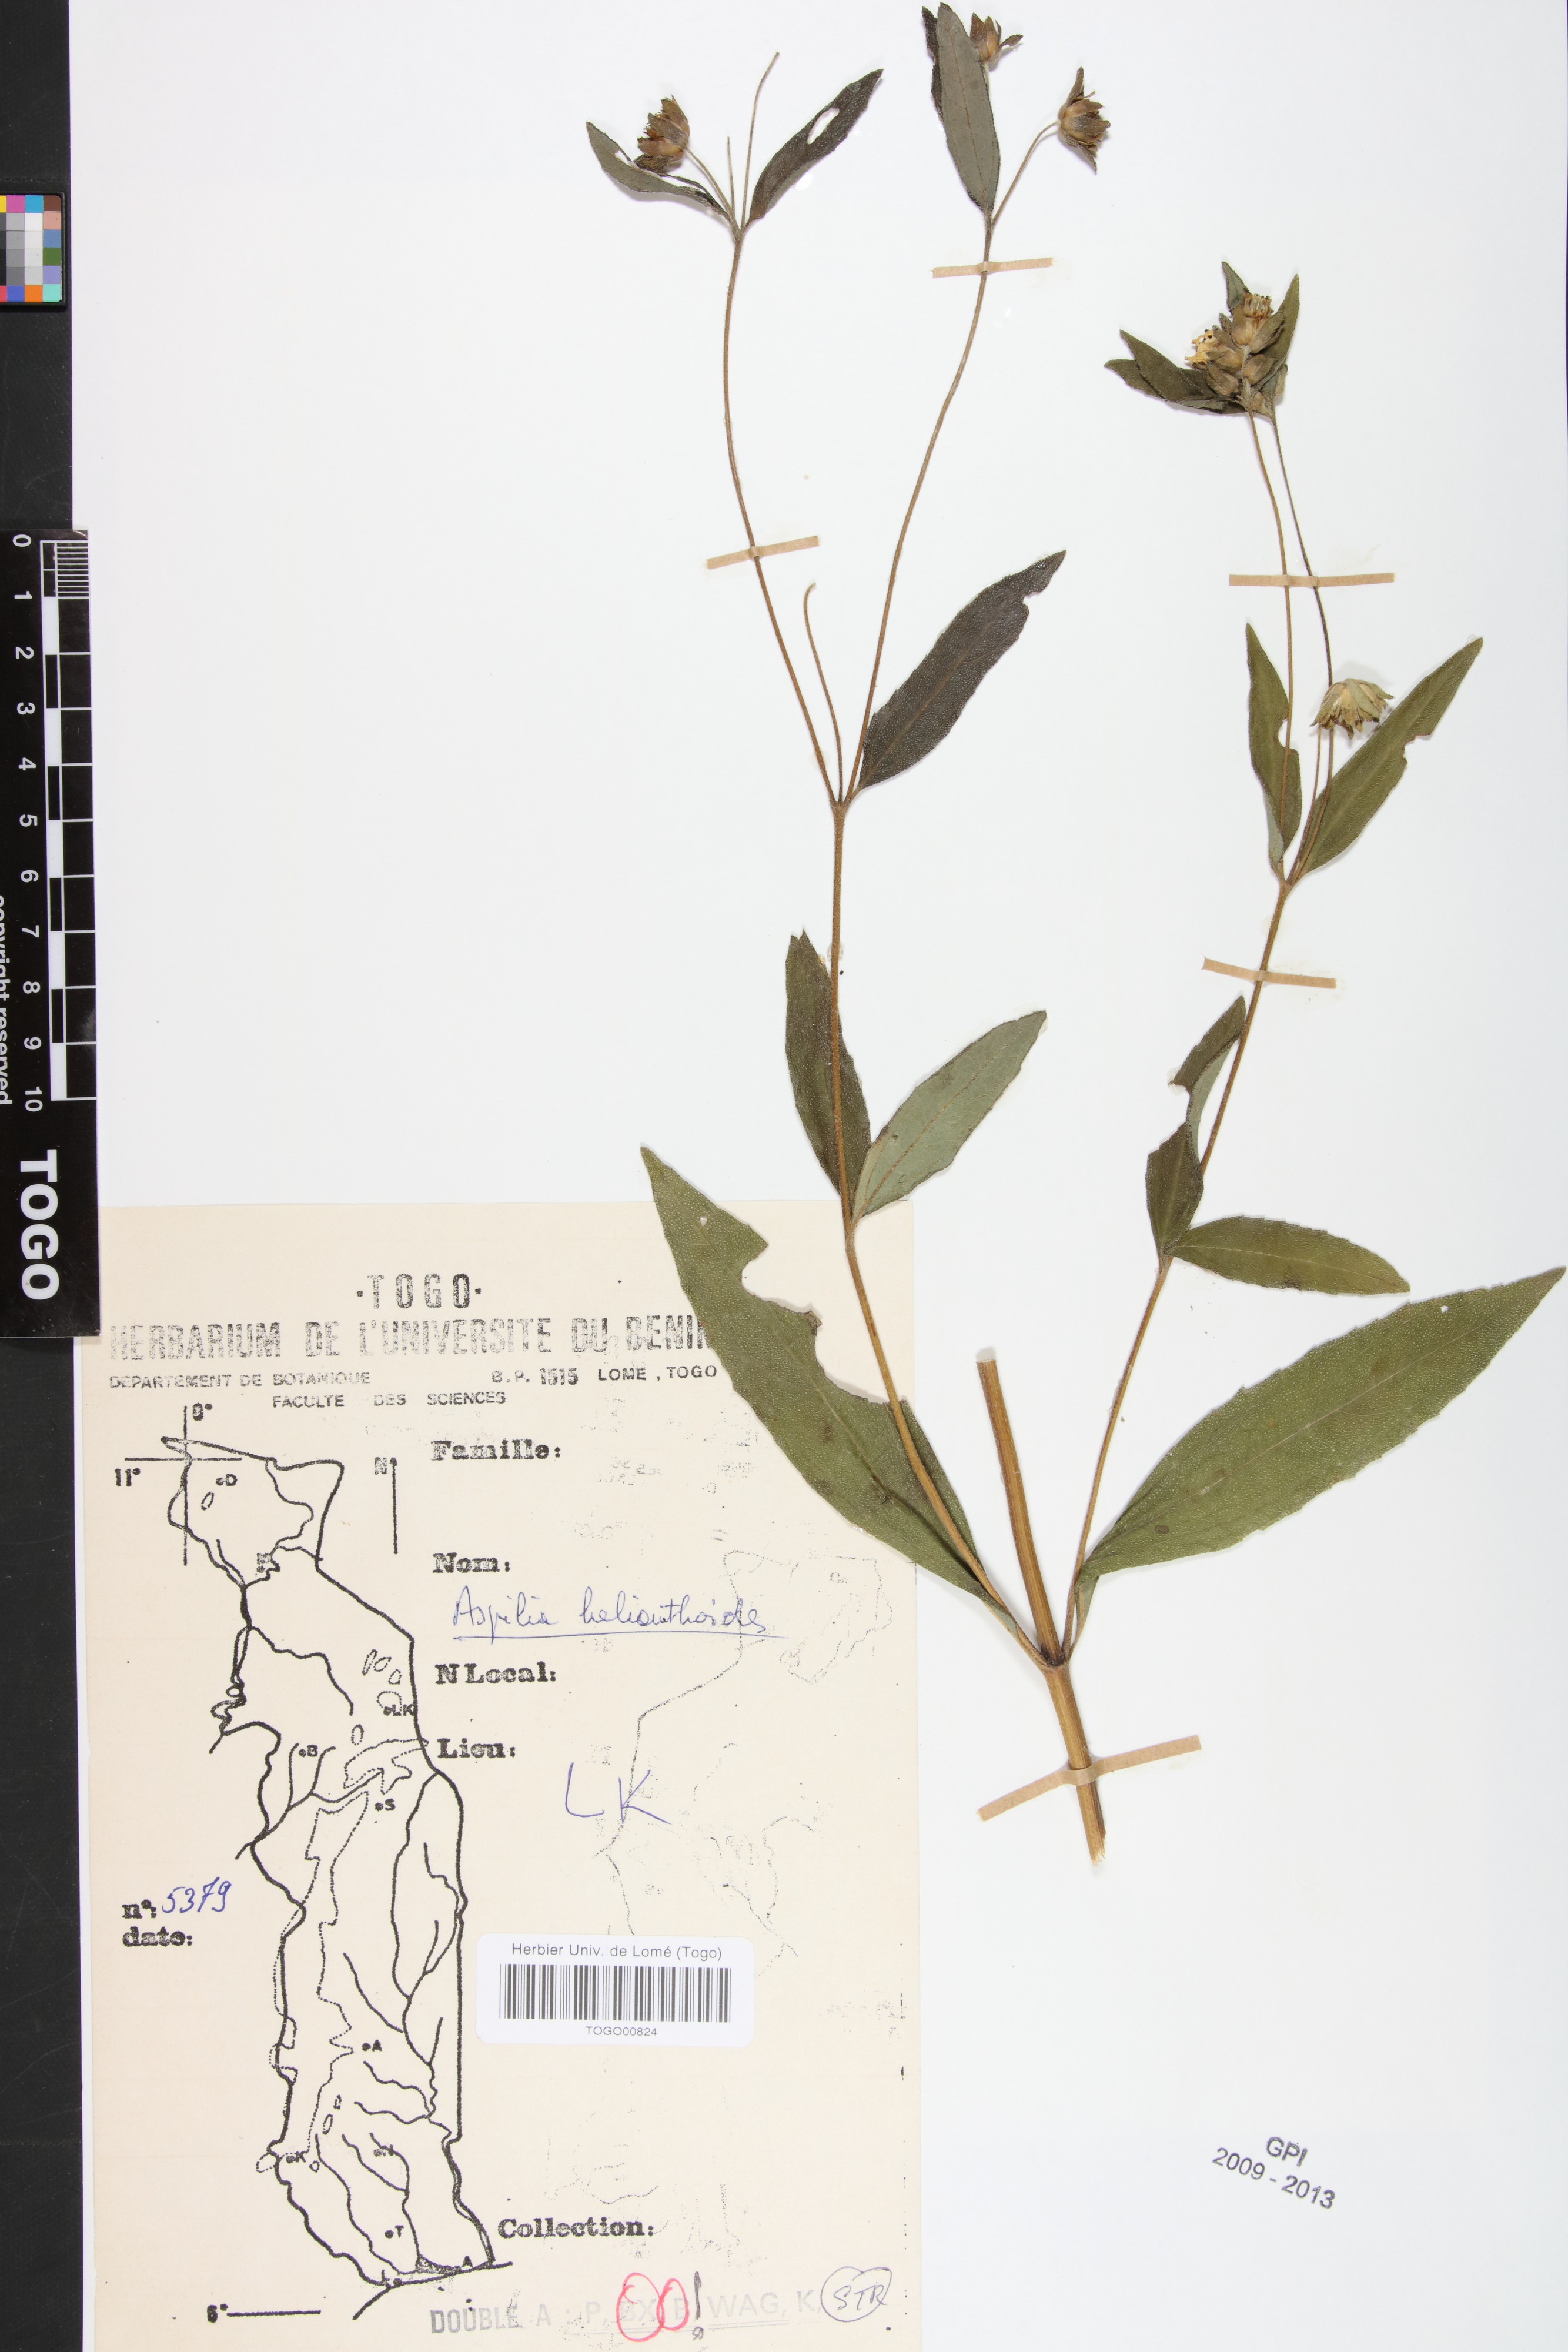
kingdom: Plantae
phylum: Tracheophyta
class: Magnoliopsida
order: Asterales
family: Asteraceae
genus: Aspilia
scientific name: Aspilia helianthoides
